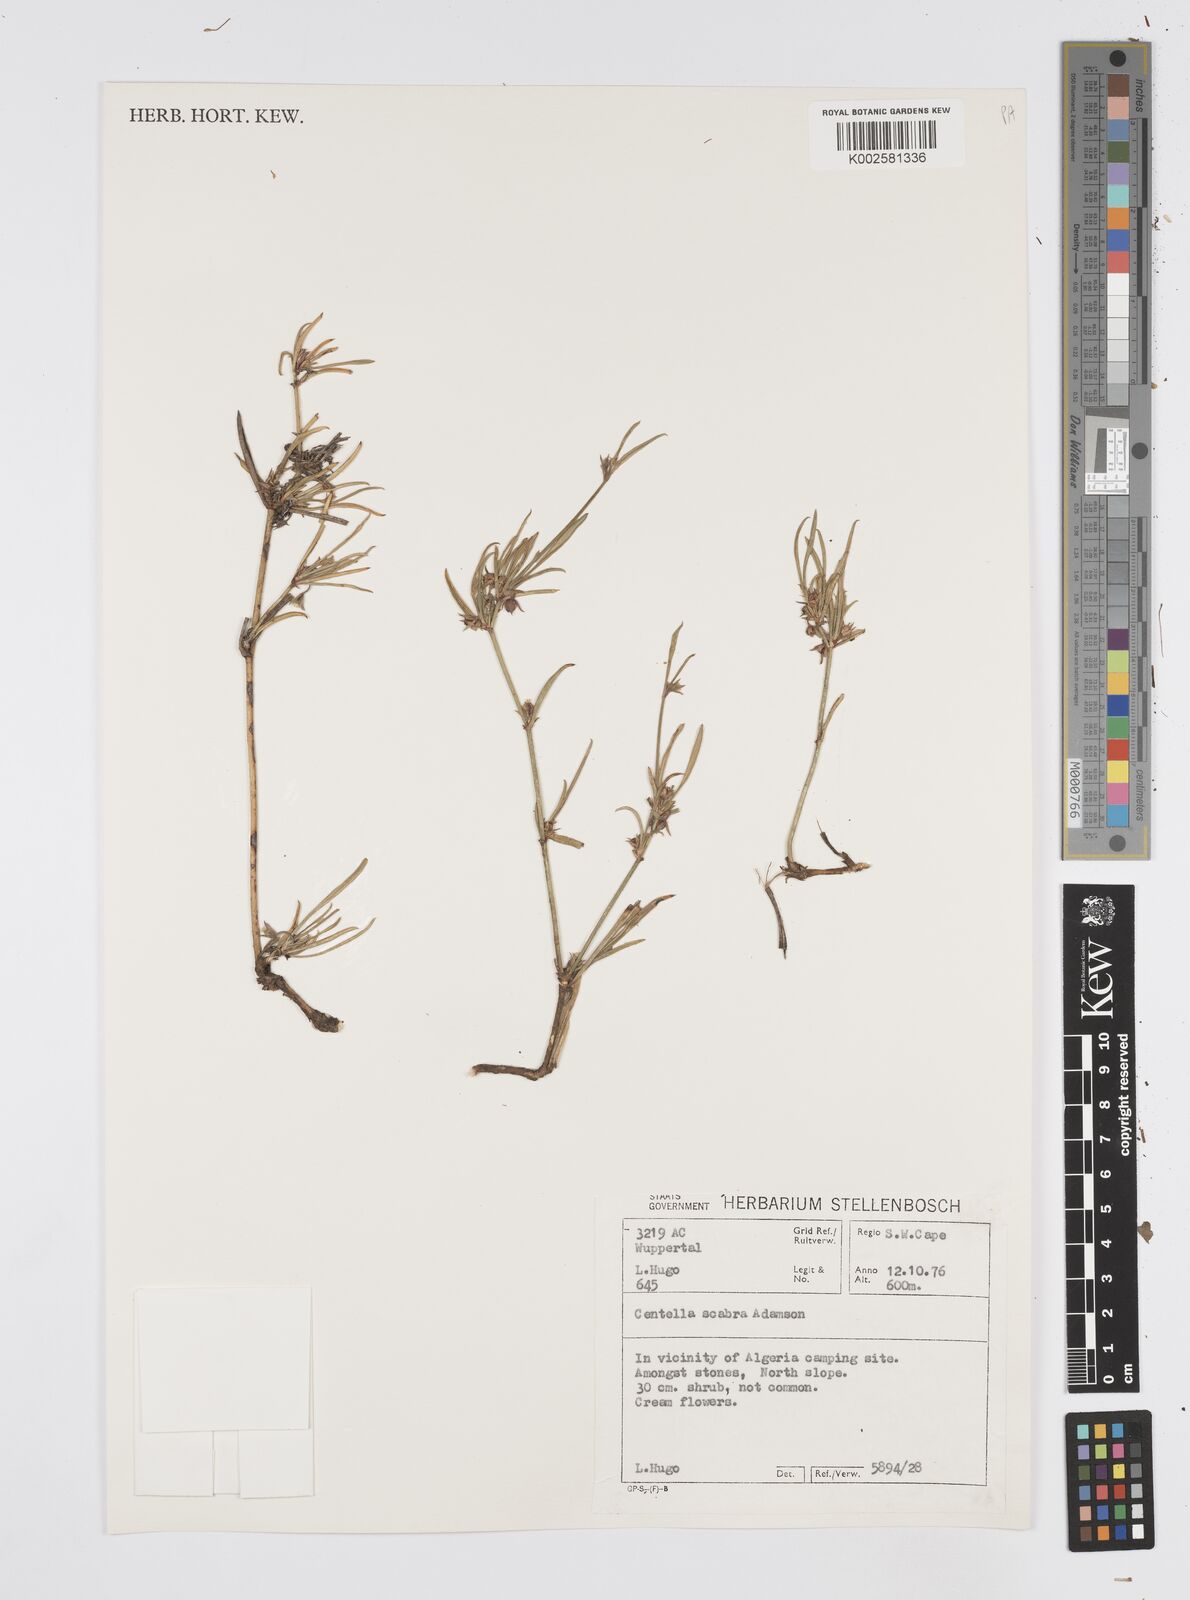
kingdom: Plantae
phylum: Tracheophyta
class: Magnoliopsida
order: Apiales
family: Apiaceae
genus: Centella
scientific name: Centella scabra
